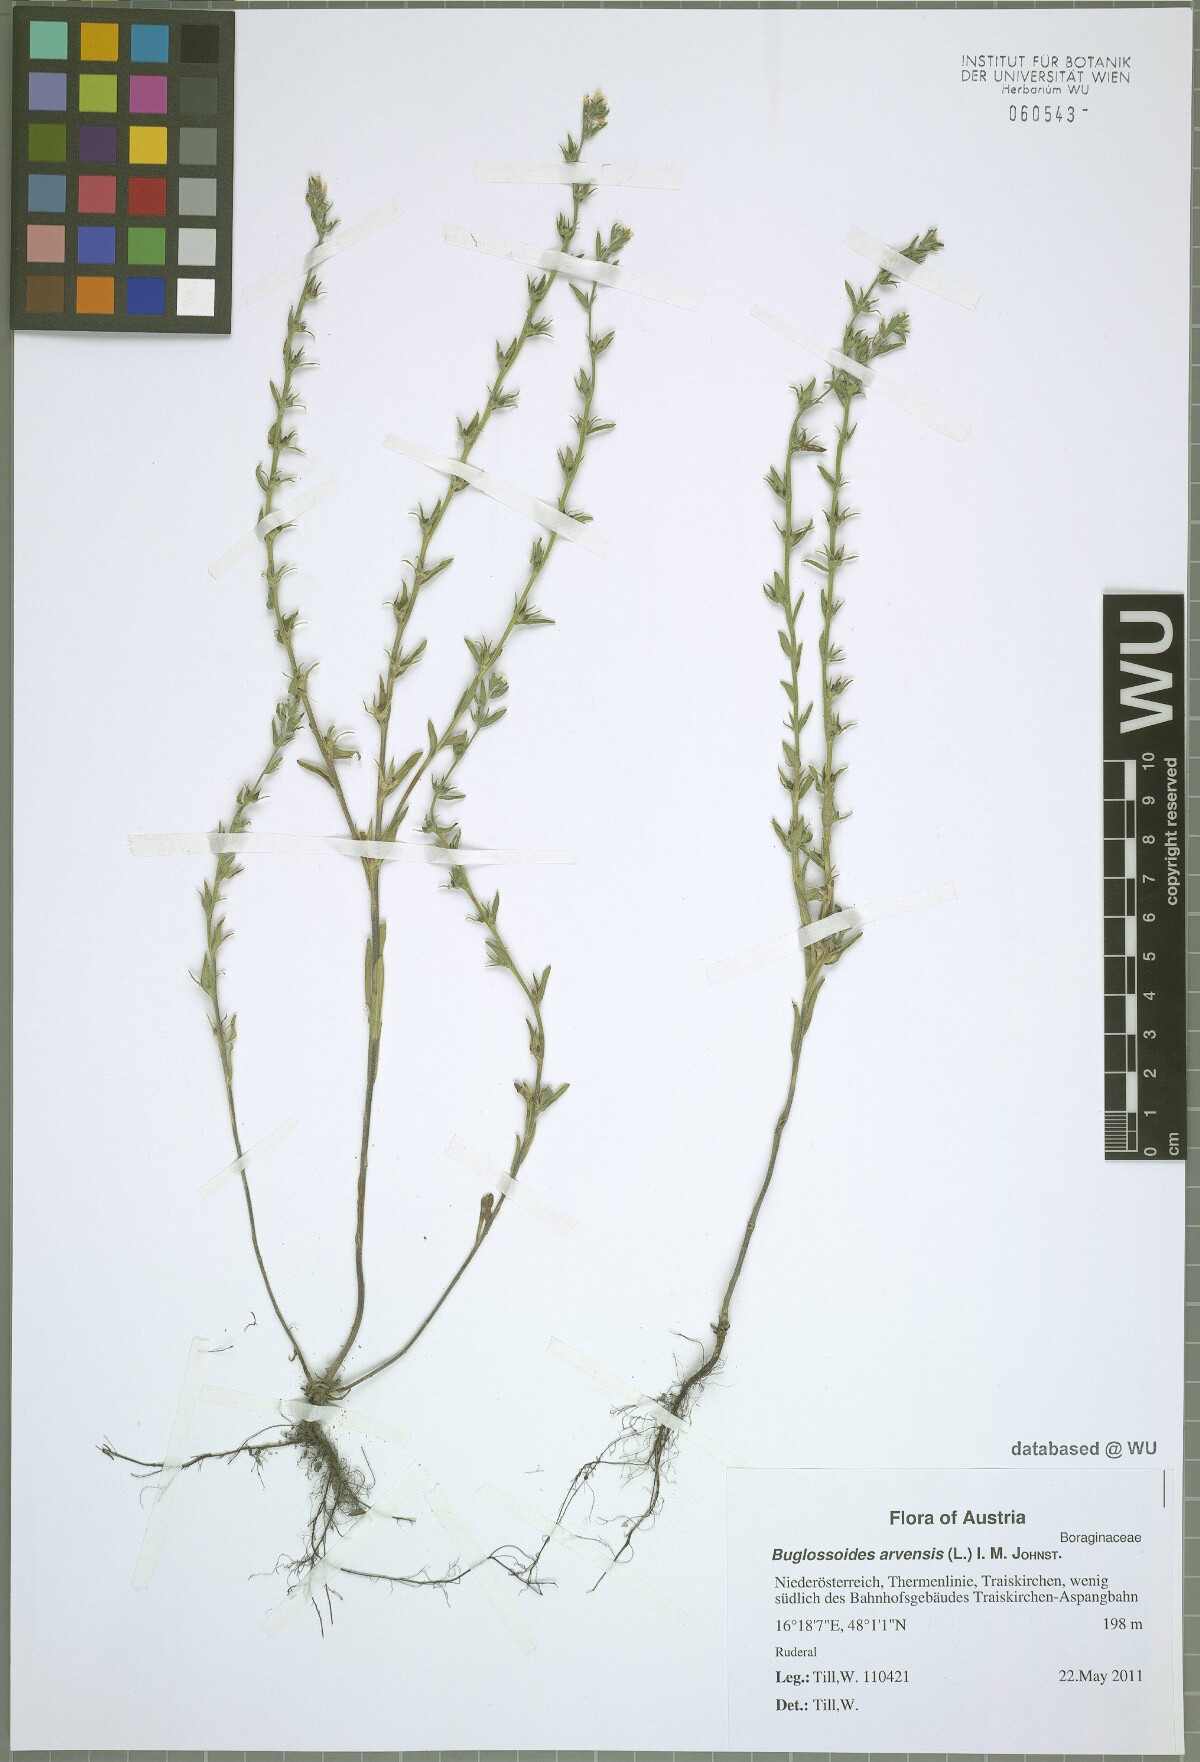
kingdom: Plantae
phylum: Tracheophyta
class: Magnoliopsida
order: Boraginales
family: Boraginaceae
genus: Buglossoides
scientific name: Buglossoides incrassata
